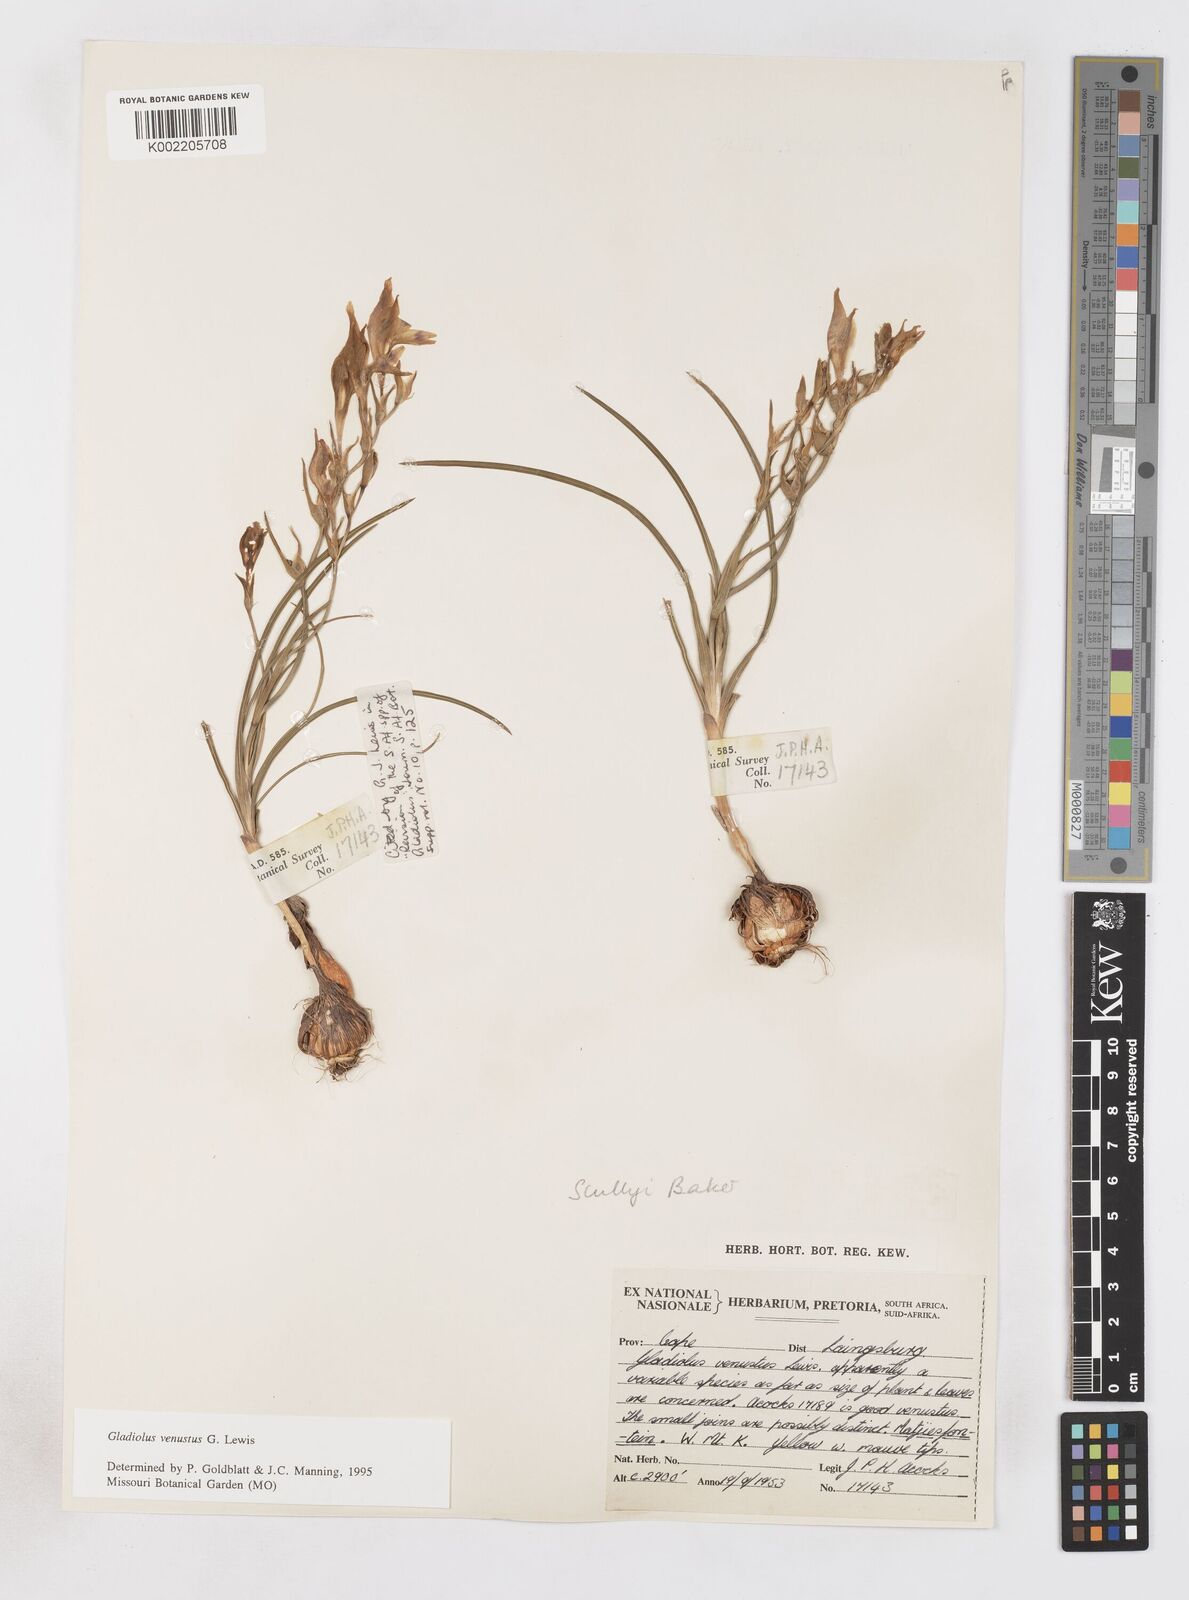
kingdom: Plantae
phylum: Tracheophyta
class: Liliopsida
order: Asparagales
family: Iridaceae
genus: Gladiolus
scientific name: Gladiolus venustus
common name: Purple kalkoentjie
